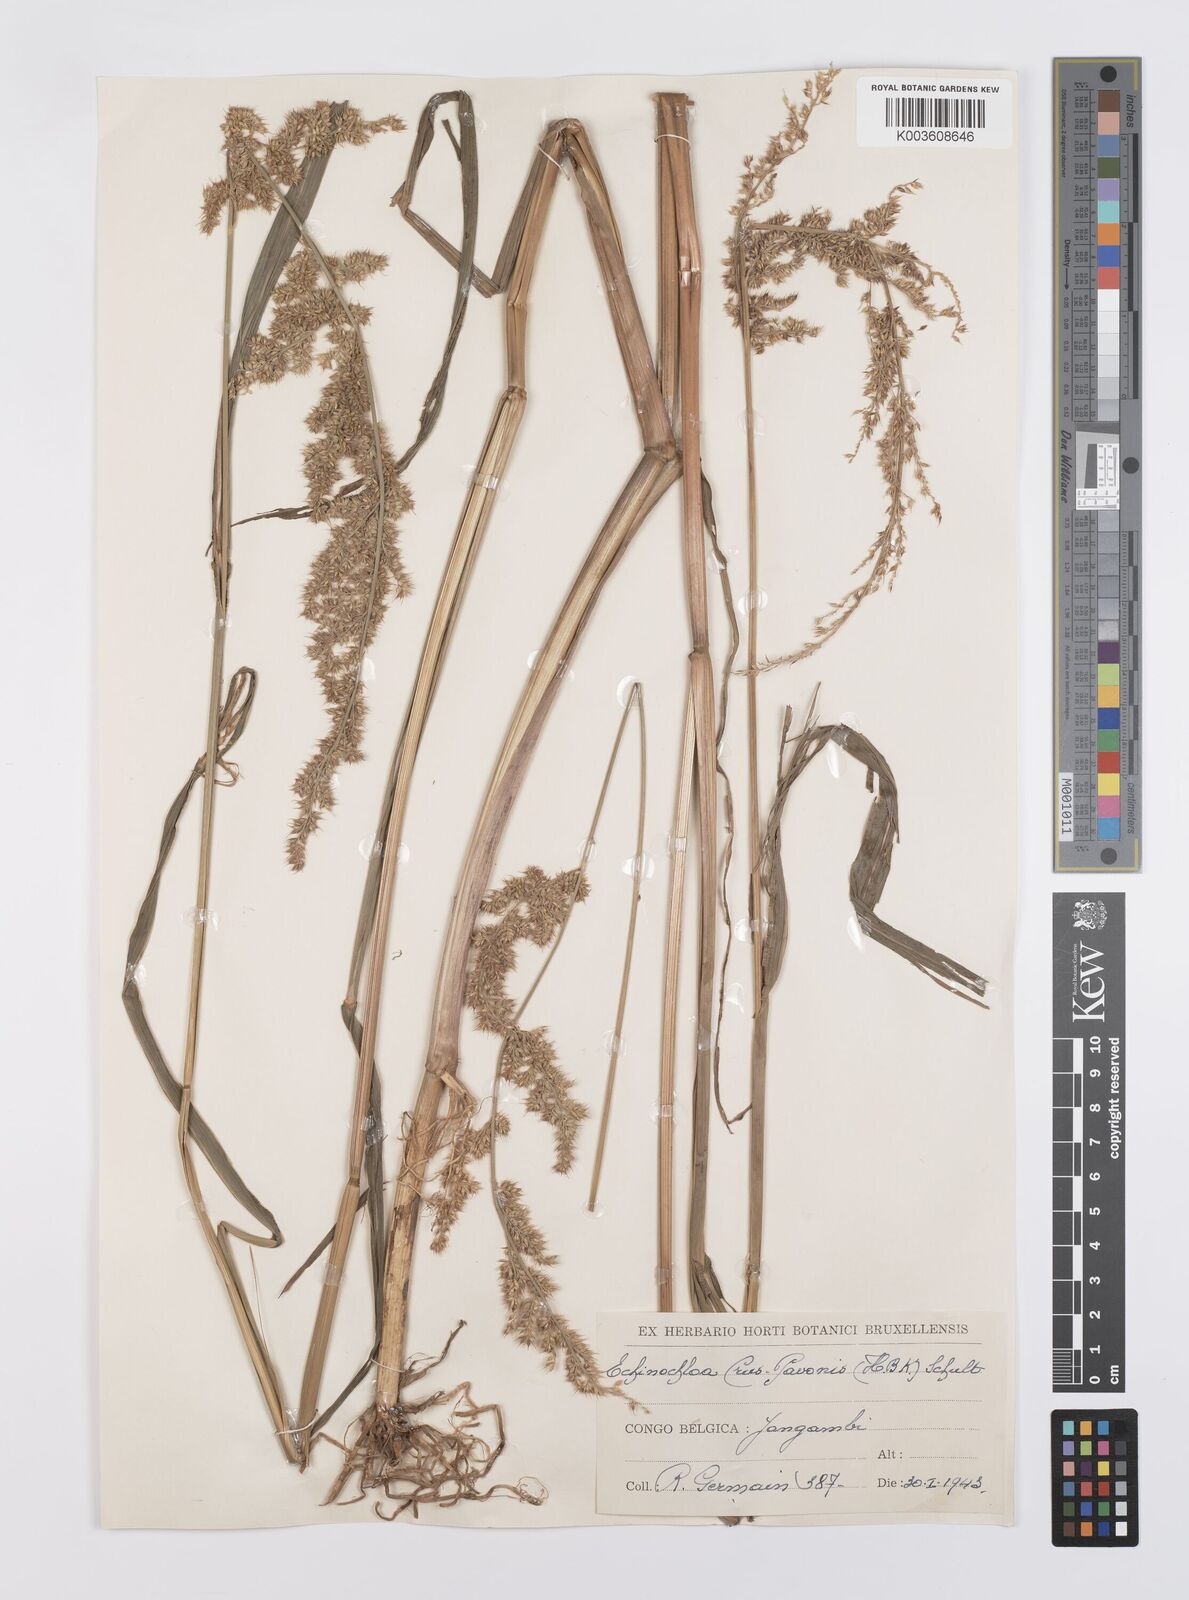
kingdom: Plantae
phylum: Tracheophyta
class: Liliopsida
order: Poales
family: Poaceae
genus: Echinochloa
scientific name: Echinochloa crus-pavonis
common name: Gulf cockspur grass
